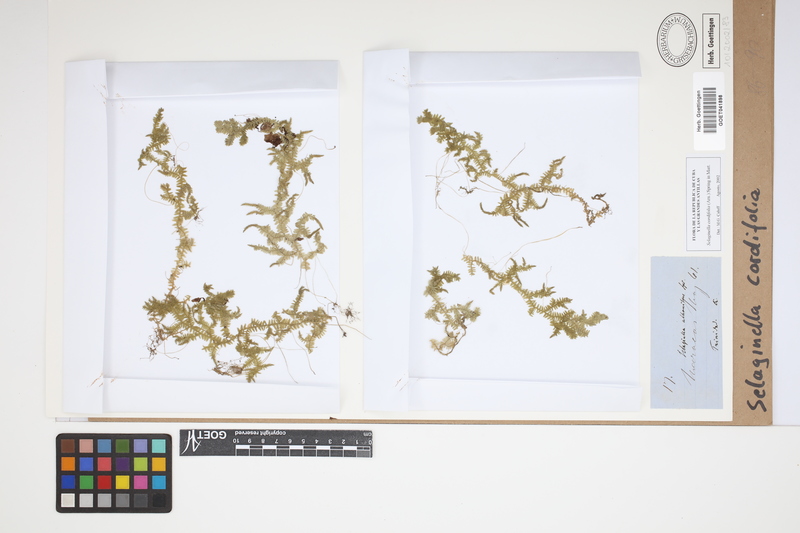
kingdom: Plantae
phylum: Tracheophyta
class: Lycopodiopsida
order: Selaginellales
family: Selaginellaceae
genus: Selaginella
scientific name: Selaginella cordifolia
